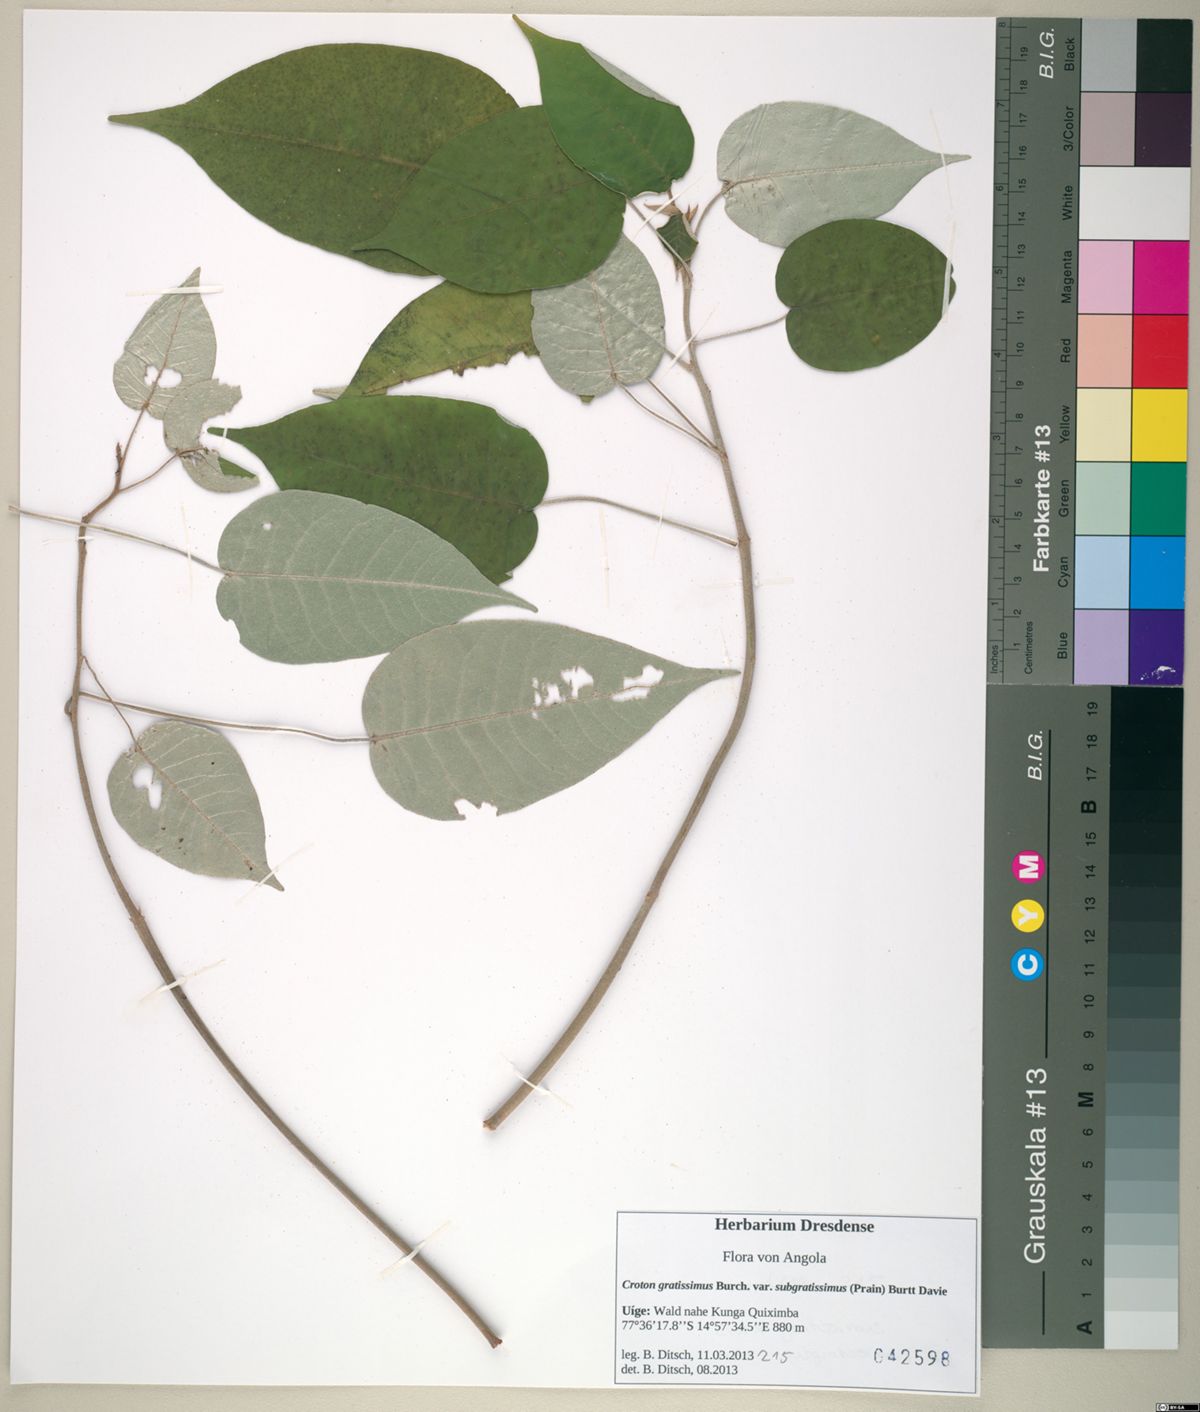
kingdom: Plantae
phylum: Tracheophyta
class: Magnoliopsida
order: Malpighiales
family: Euphorbiaceae
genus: Croton
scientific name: Croton gratissimus
